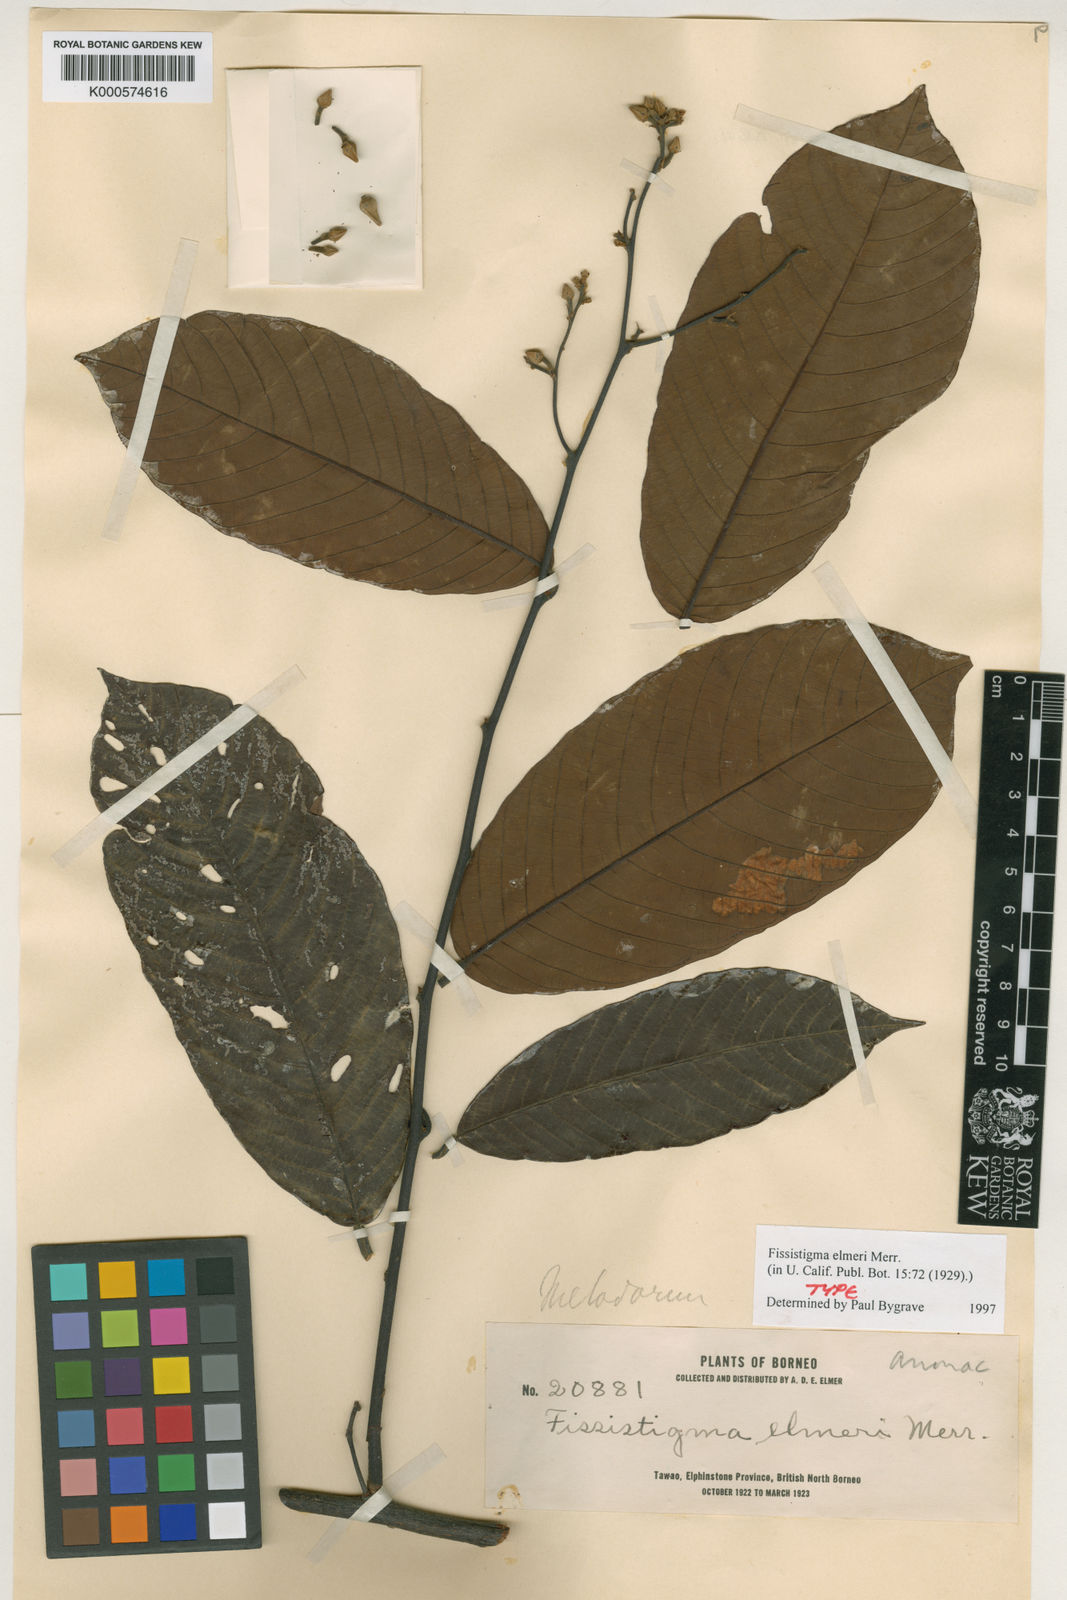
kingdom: Plantae
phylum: Tracheophyta
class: Magnoliopsida
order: Magnoliales
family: Annonaceae
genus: Fissistigma
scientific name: Fissistigma elmeri
